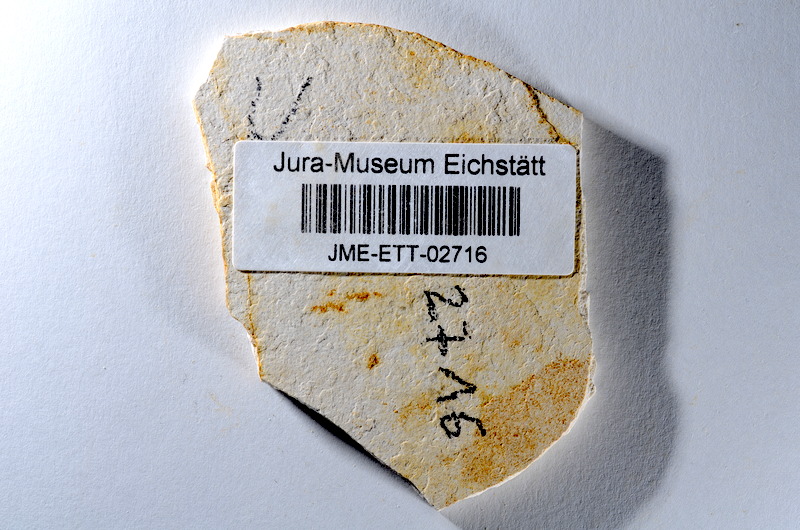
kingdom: Animalia
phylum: Chordata
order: Salmoniformes
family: Orthogonikleithridae
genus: Orthogonikleithrus
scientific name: Orthogonikleithrus hoelli
